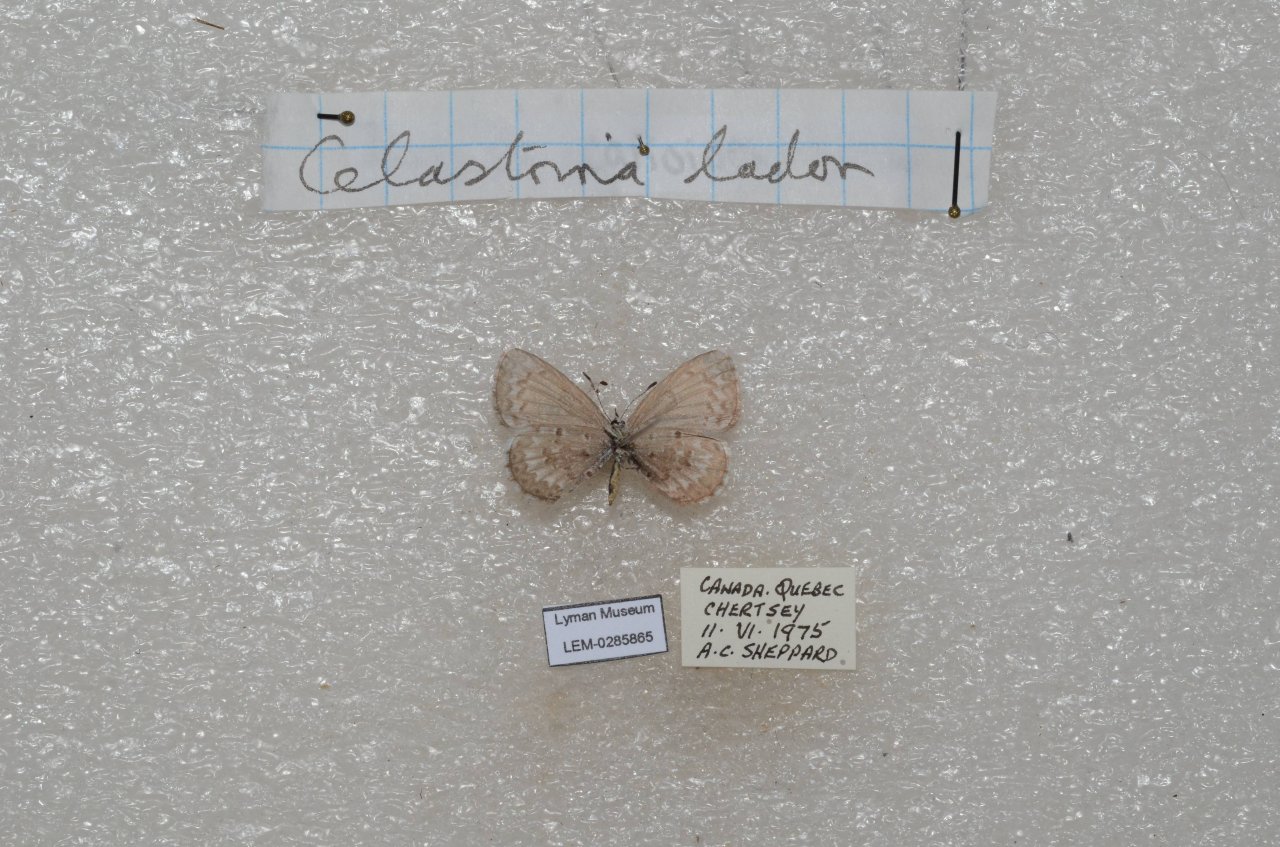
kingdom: Animalia
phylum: Arthropoda
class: Insecta
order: Lepidoptera
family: Lycaenidae
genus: Celastrina
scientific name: Celastrina lucia
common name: Northern Spring Azure
